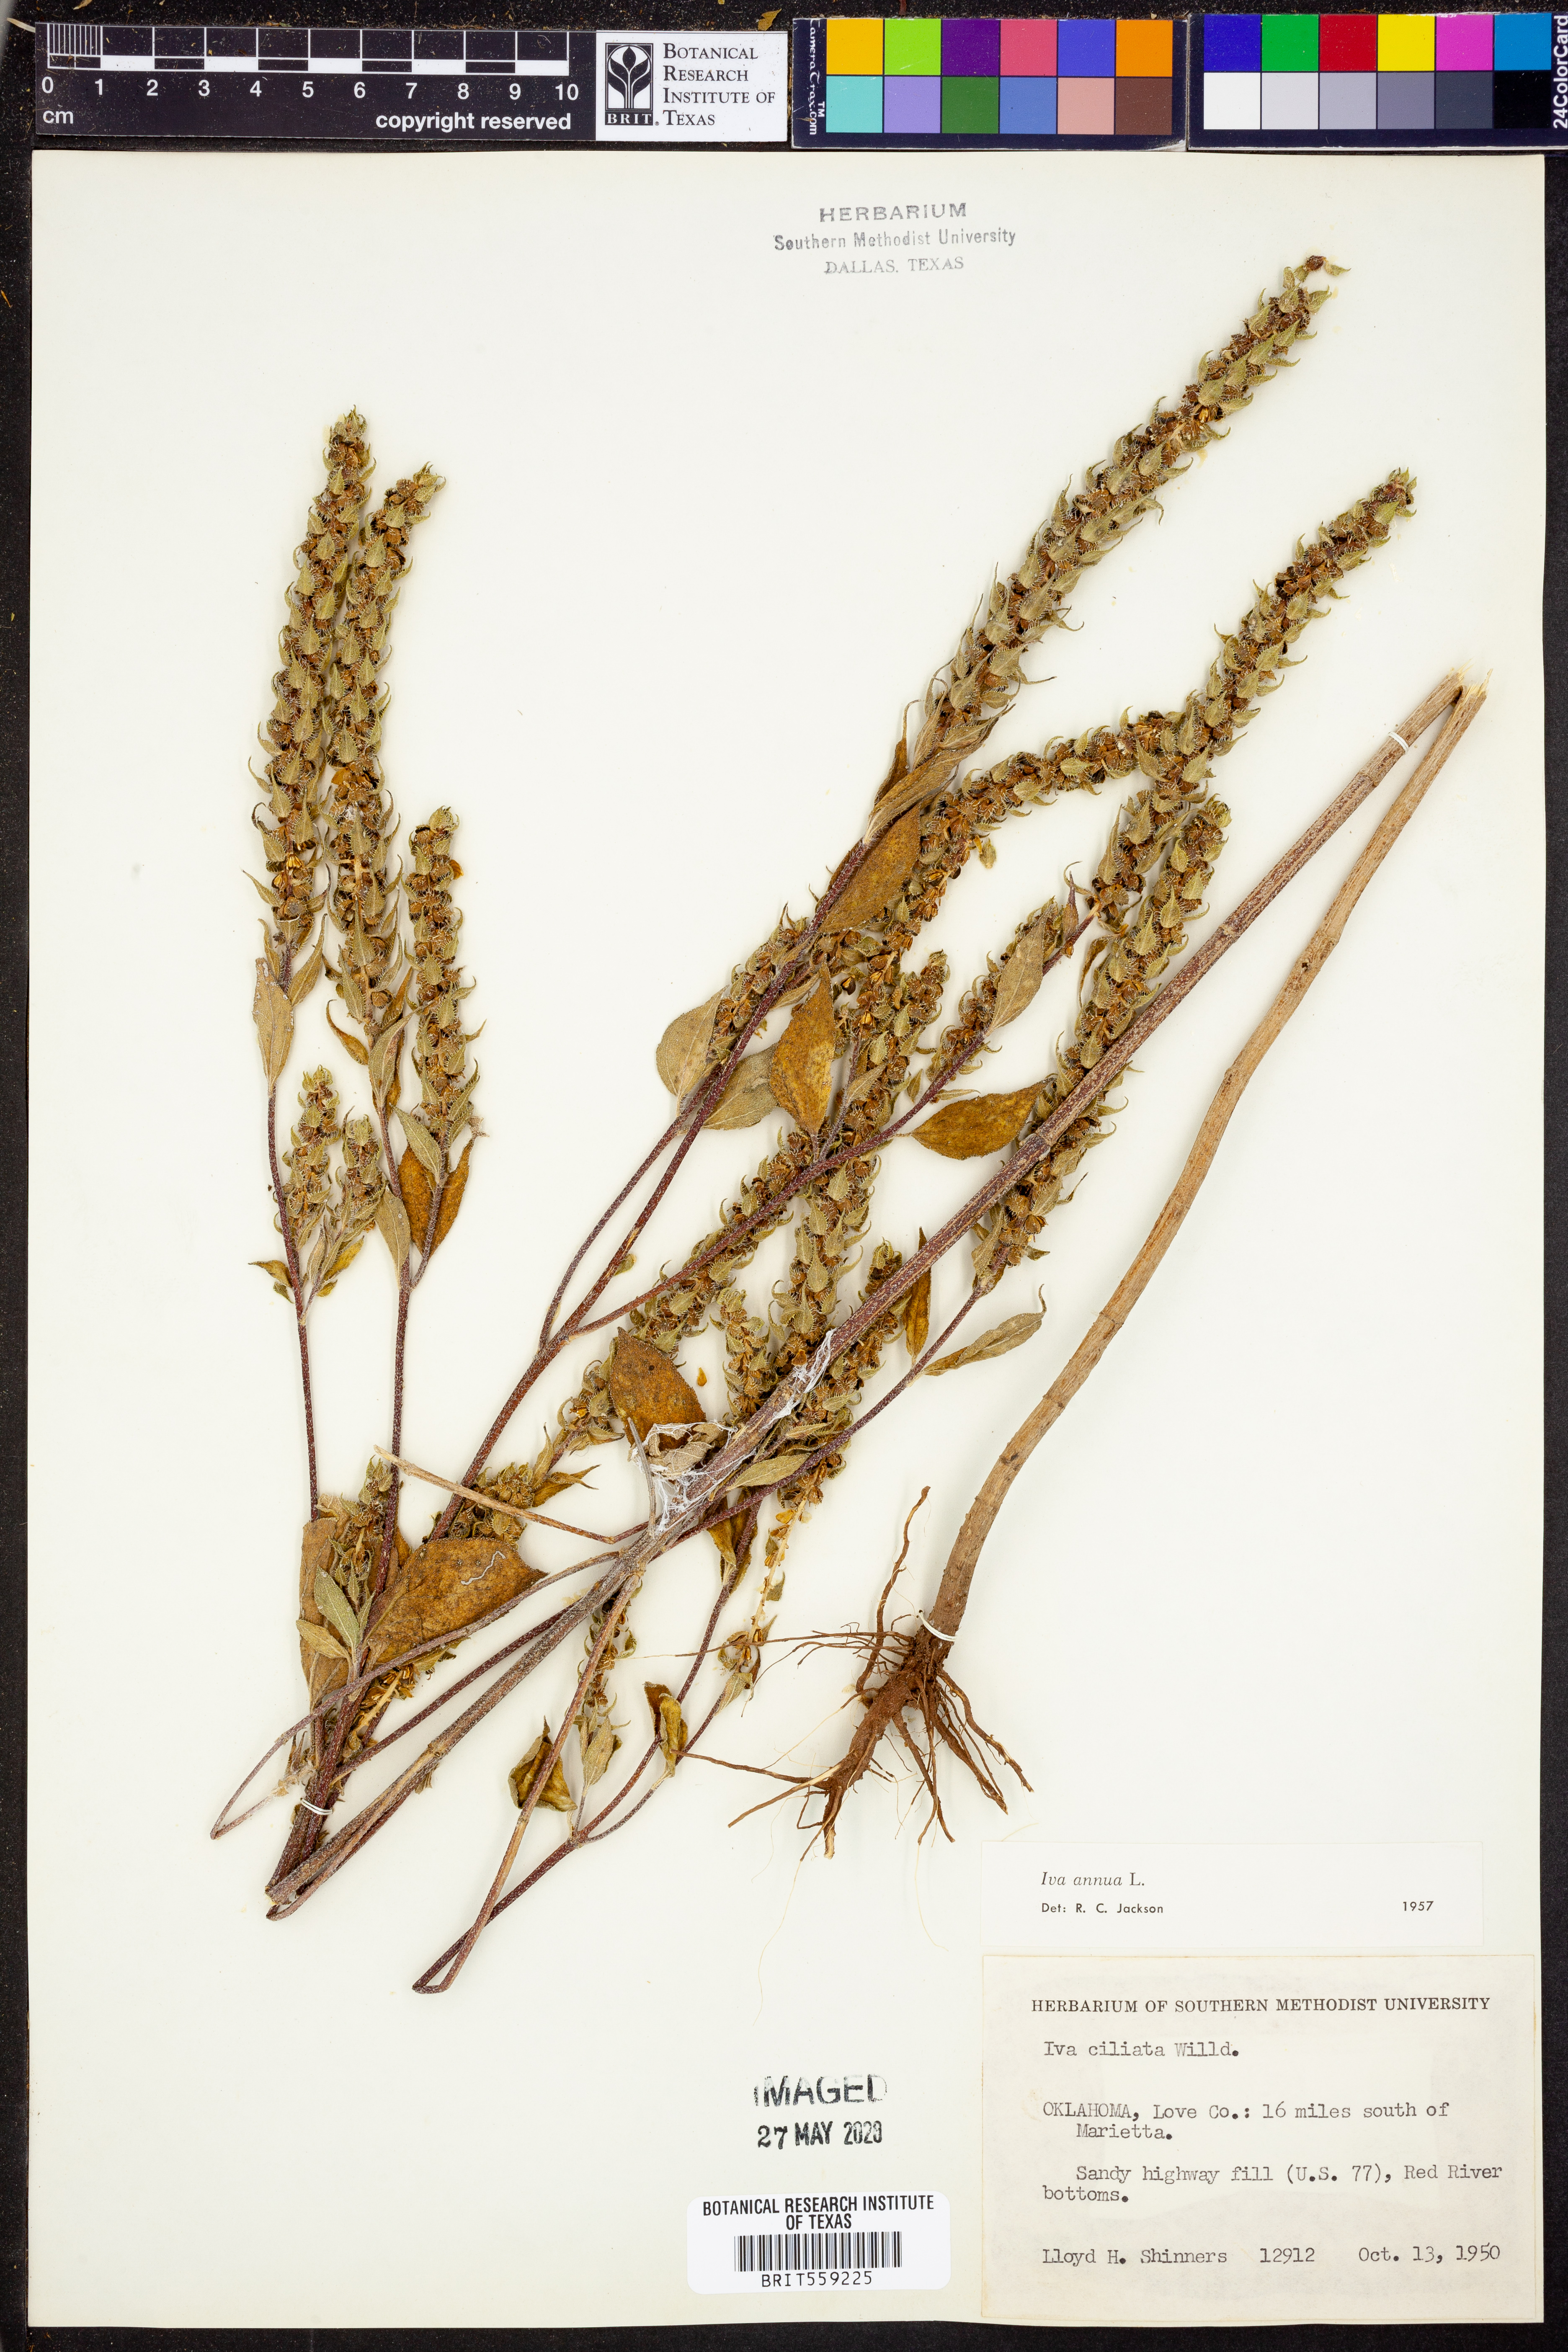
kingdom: Plantae
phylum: Tracheophyta
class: Magnoliopsida
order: Asterales
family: Asteraceae
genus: Iva
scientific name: Iva annua
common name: Marsh-elder
